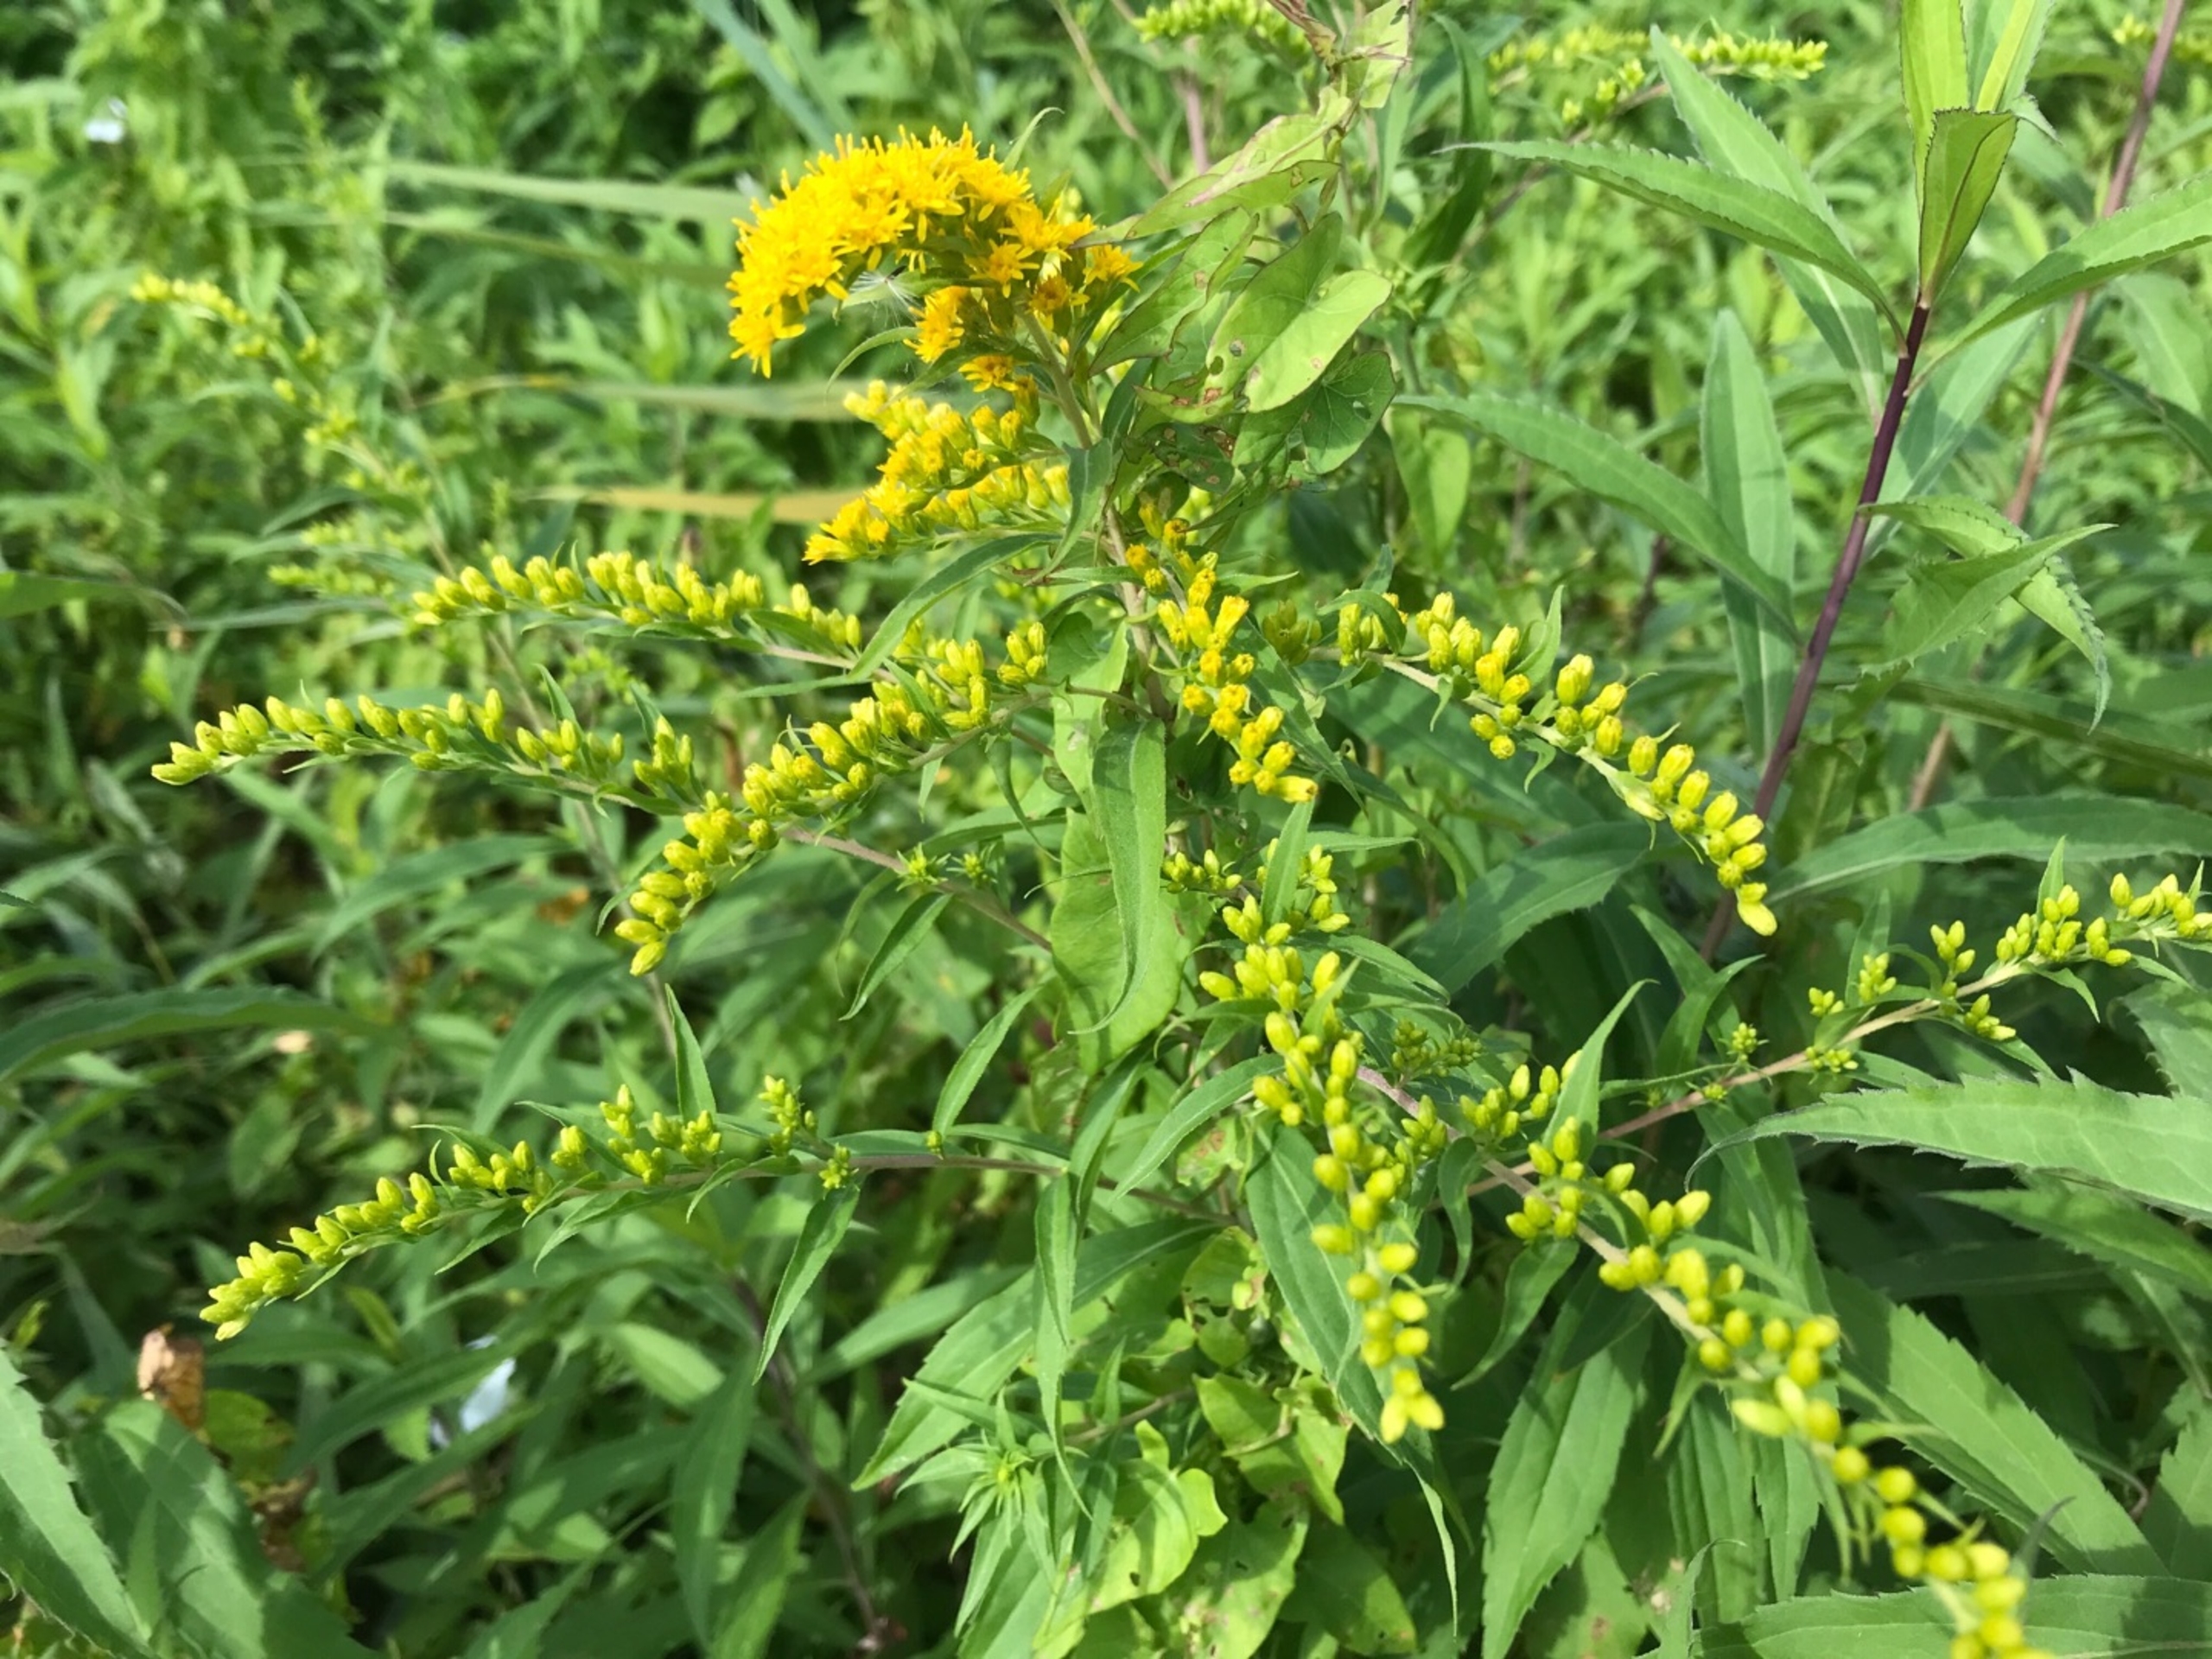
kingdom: Plantae
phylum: Tracheophyta
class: Magnoliopsida
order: Asterales
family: Asteraceae
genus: Solidago
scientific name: Solidago gigantea
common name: Sildig gyldenris
